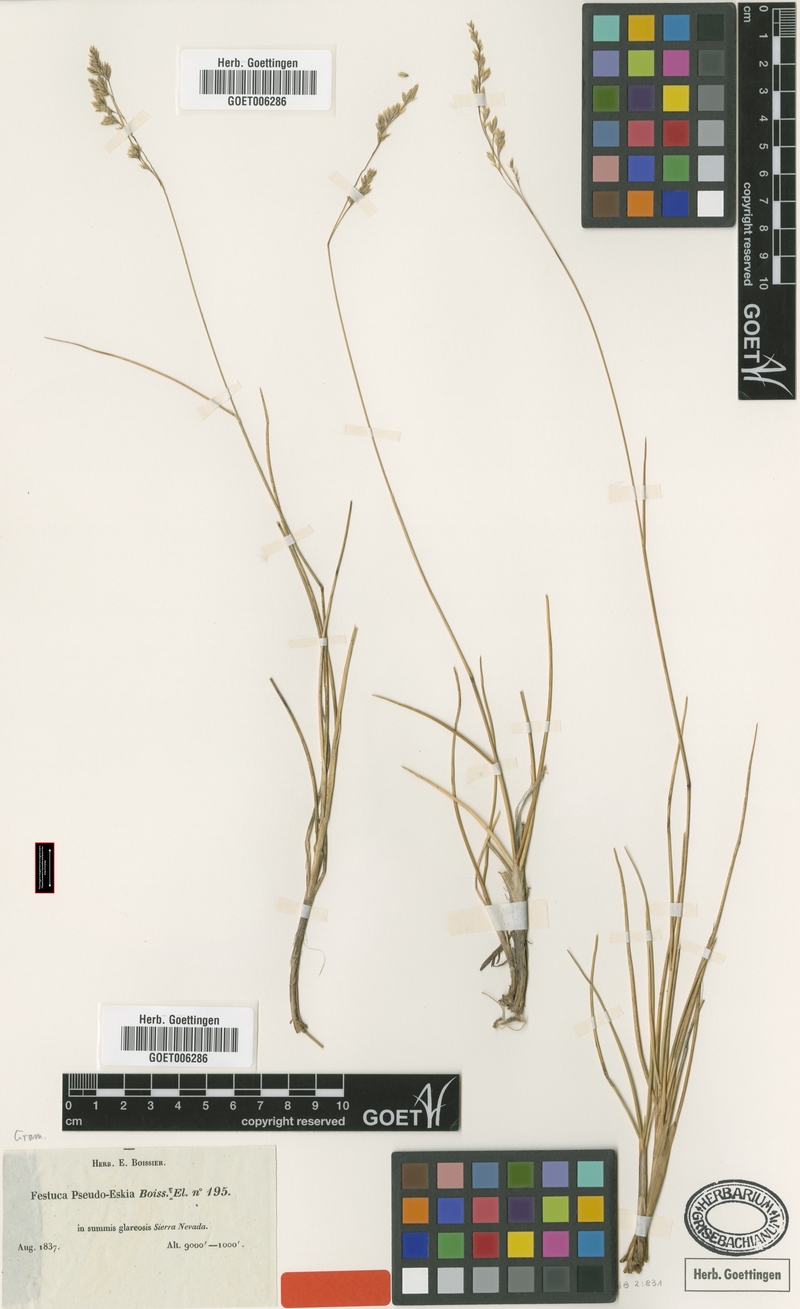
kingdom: Plantae
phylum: Tracheophyta
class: Liliopsida
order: Poales
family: Poaceae
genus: Festuca
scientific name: Festuca pseudoeskia
